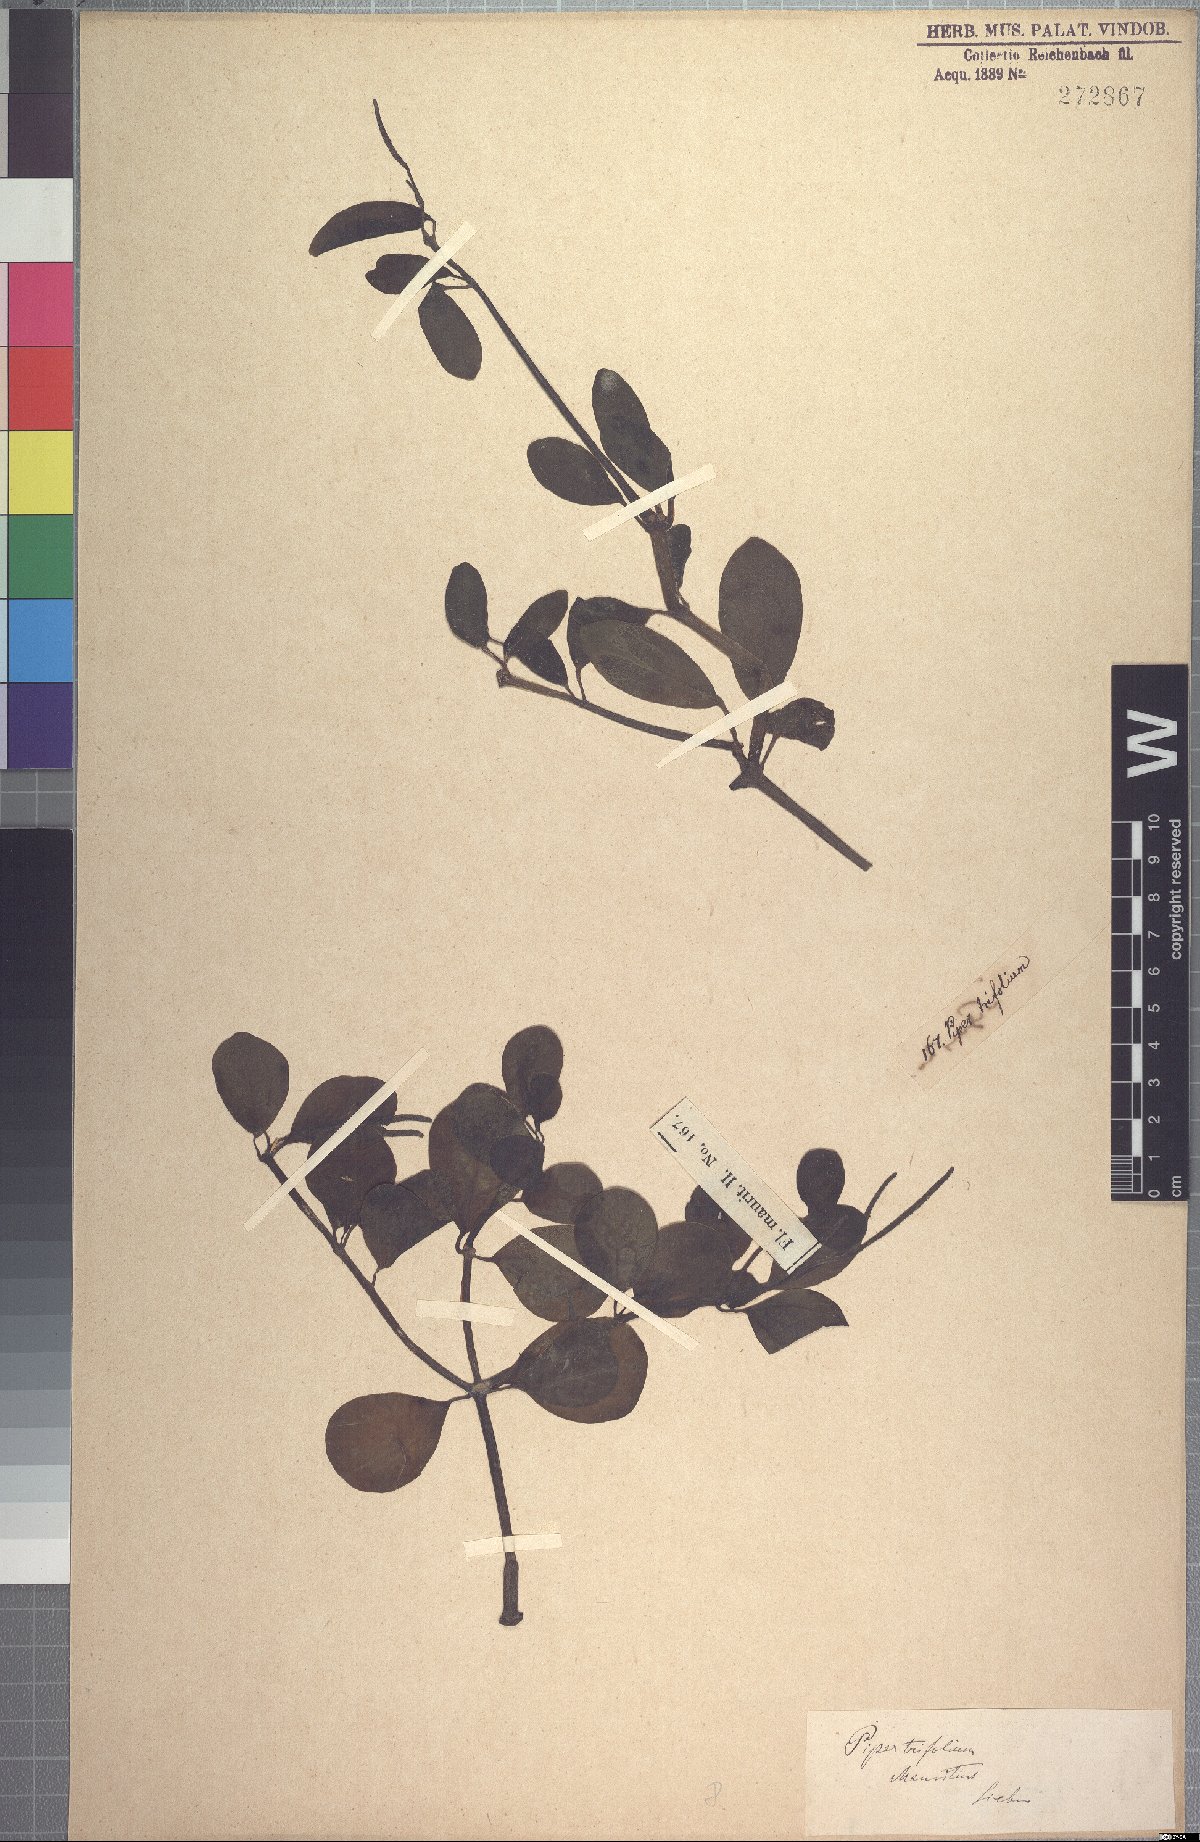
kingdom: Plantae
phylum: Tracheophyta
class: Magnoliopsida
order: Piperales
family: Piperaceae
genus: Peperomia
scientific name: Peperomia portulacoides
